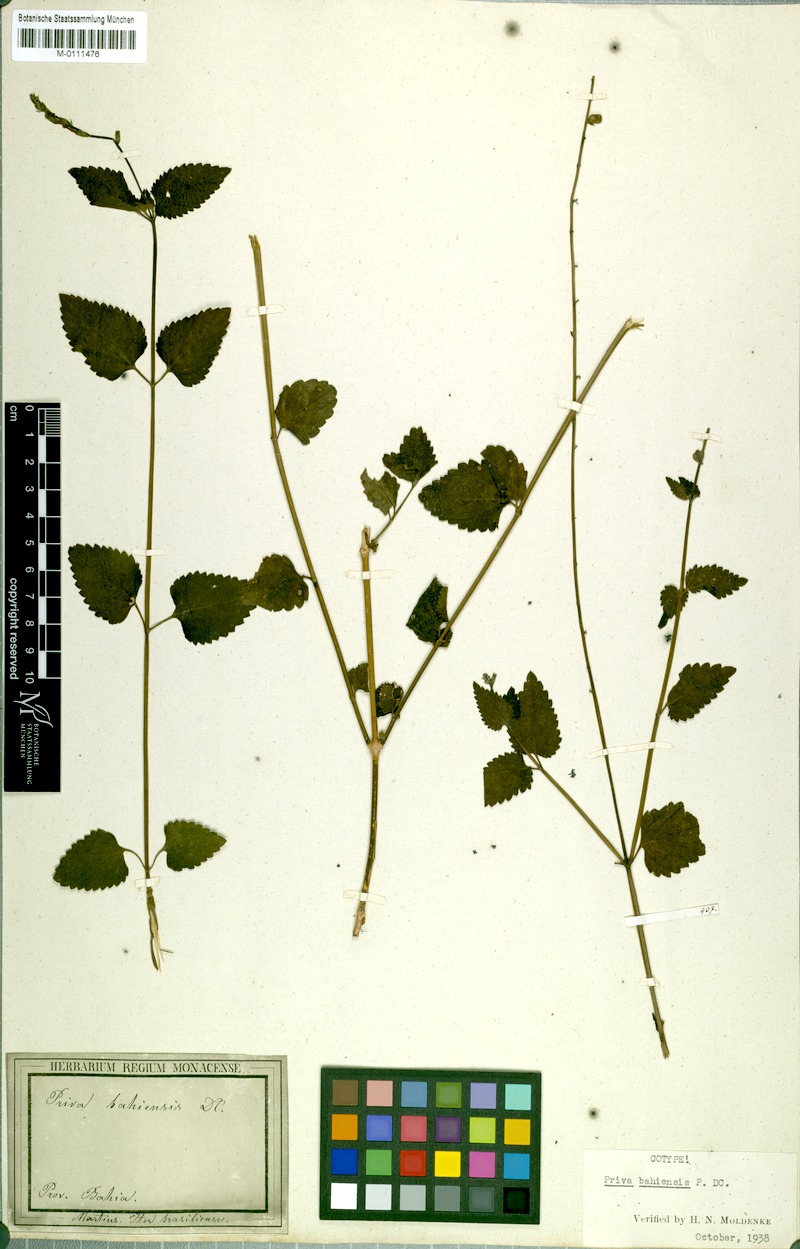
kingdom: Plantae
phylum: Tracheophyta
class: Magnoliopsida
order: Lamiales
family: Verbenaceae
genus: Priva
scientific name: Priva bahiensis
